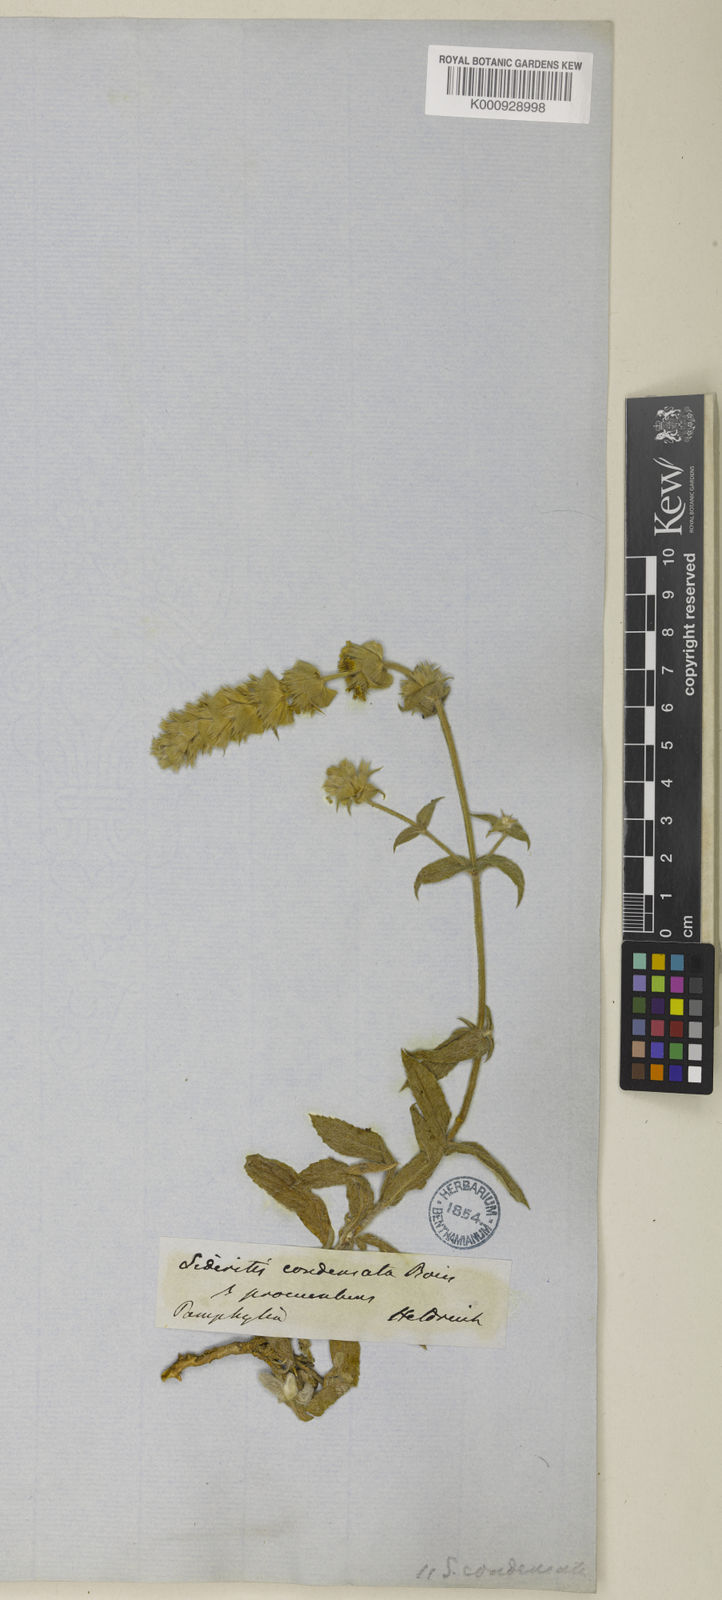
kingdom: Plantae
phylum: Tracheophyta
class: Magnoliopsida
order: Lamiales
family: Lamiaceae
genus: Sideritis
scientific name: Sideritis condensata
